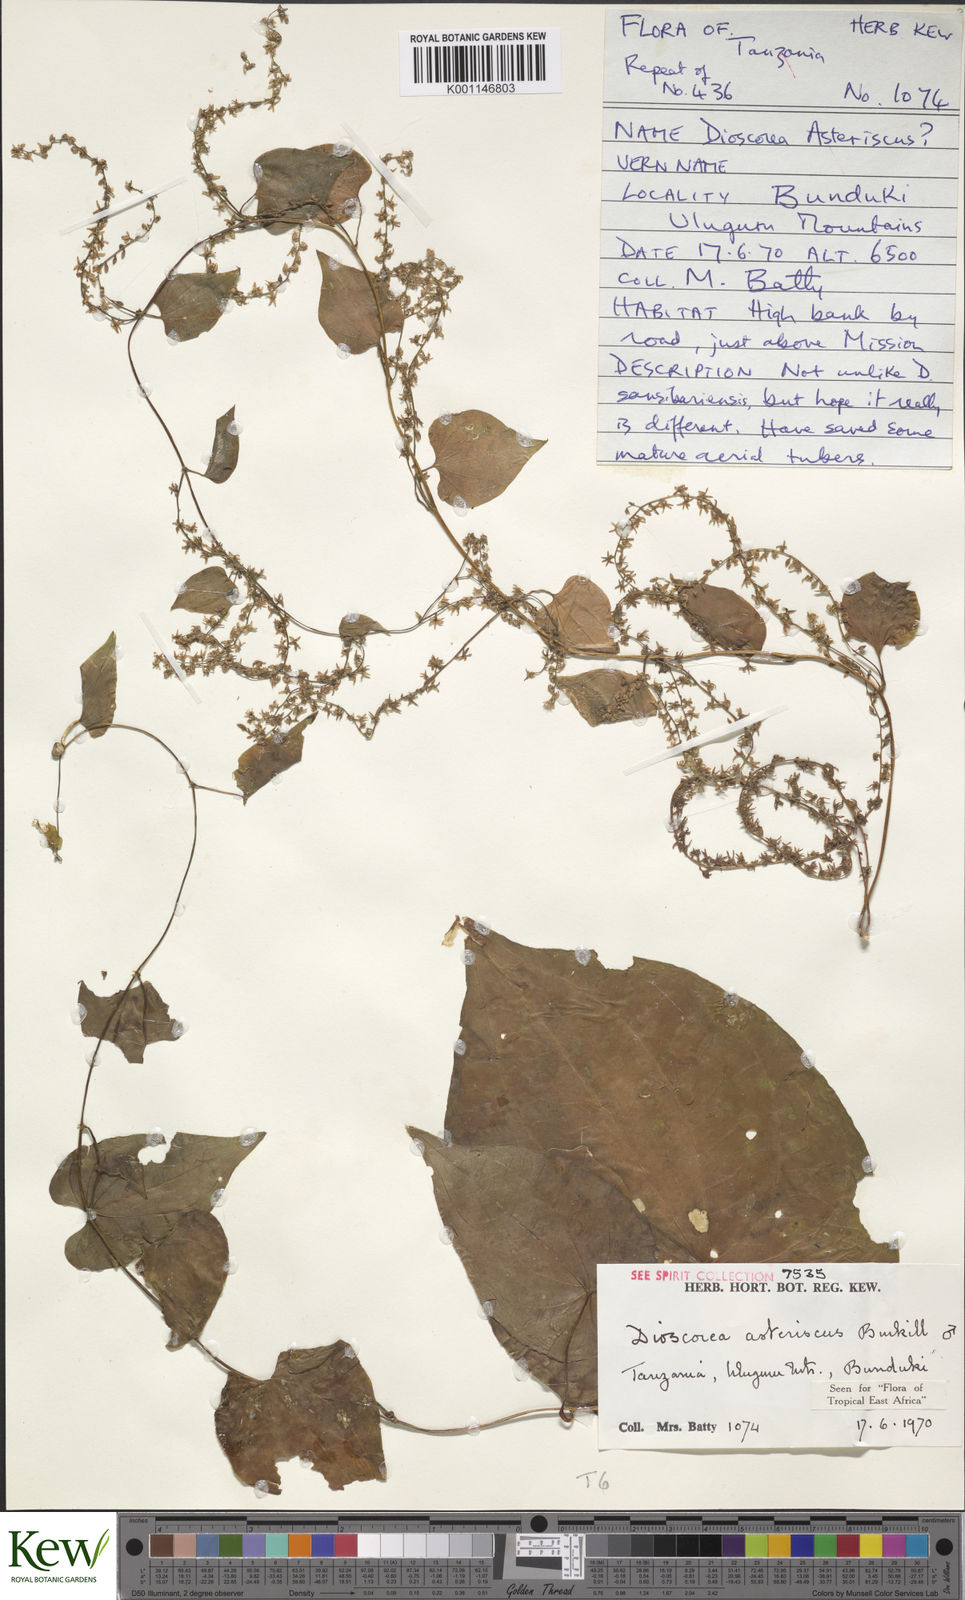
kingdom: Plantae
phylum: Tracheophyta
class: Liliopsida
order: Dioscoreales
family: Dioscoreaceae
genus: Dioscorea
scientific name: Dioscorea asteriscus
